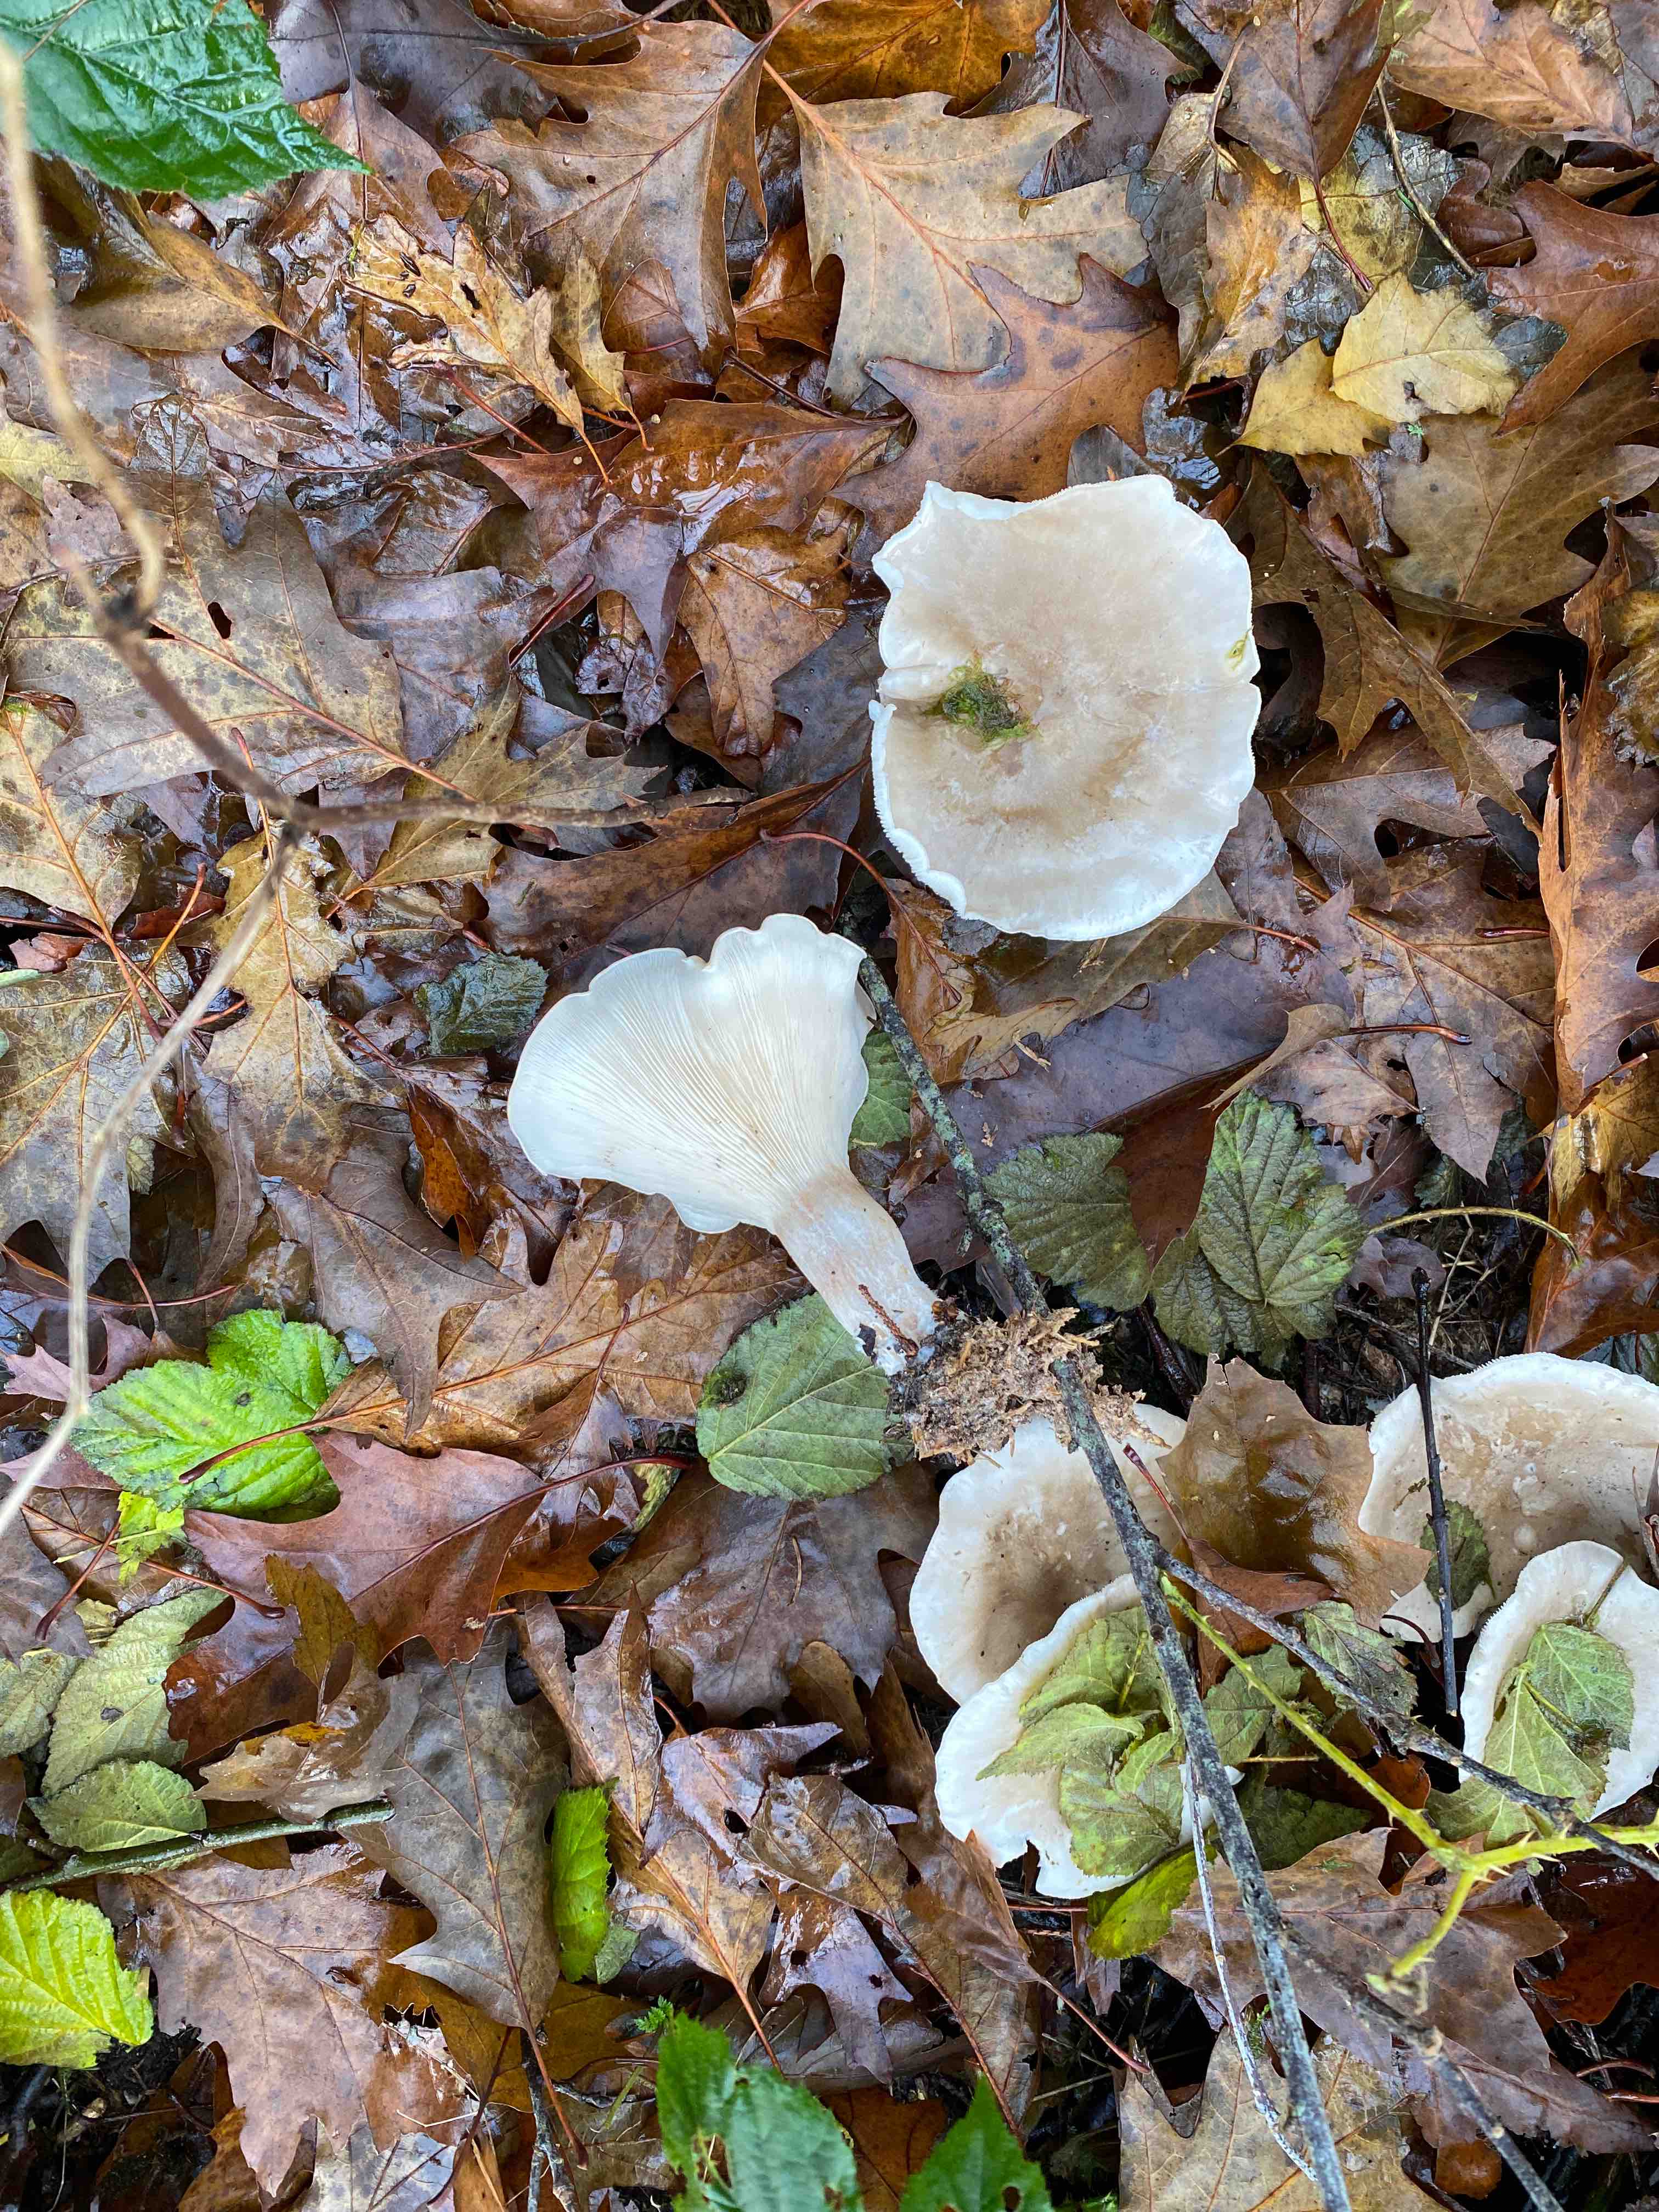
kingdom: Fungi
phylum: Basidiomycota
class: Agaricomycetes
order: Agaricales
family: Tricholomataceae
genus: Clitocybe
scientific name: Clitocybe nebularis
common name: tåge-tragthat
